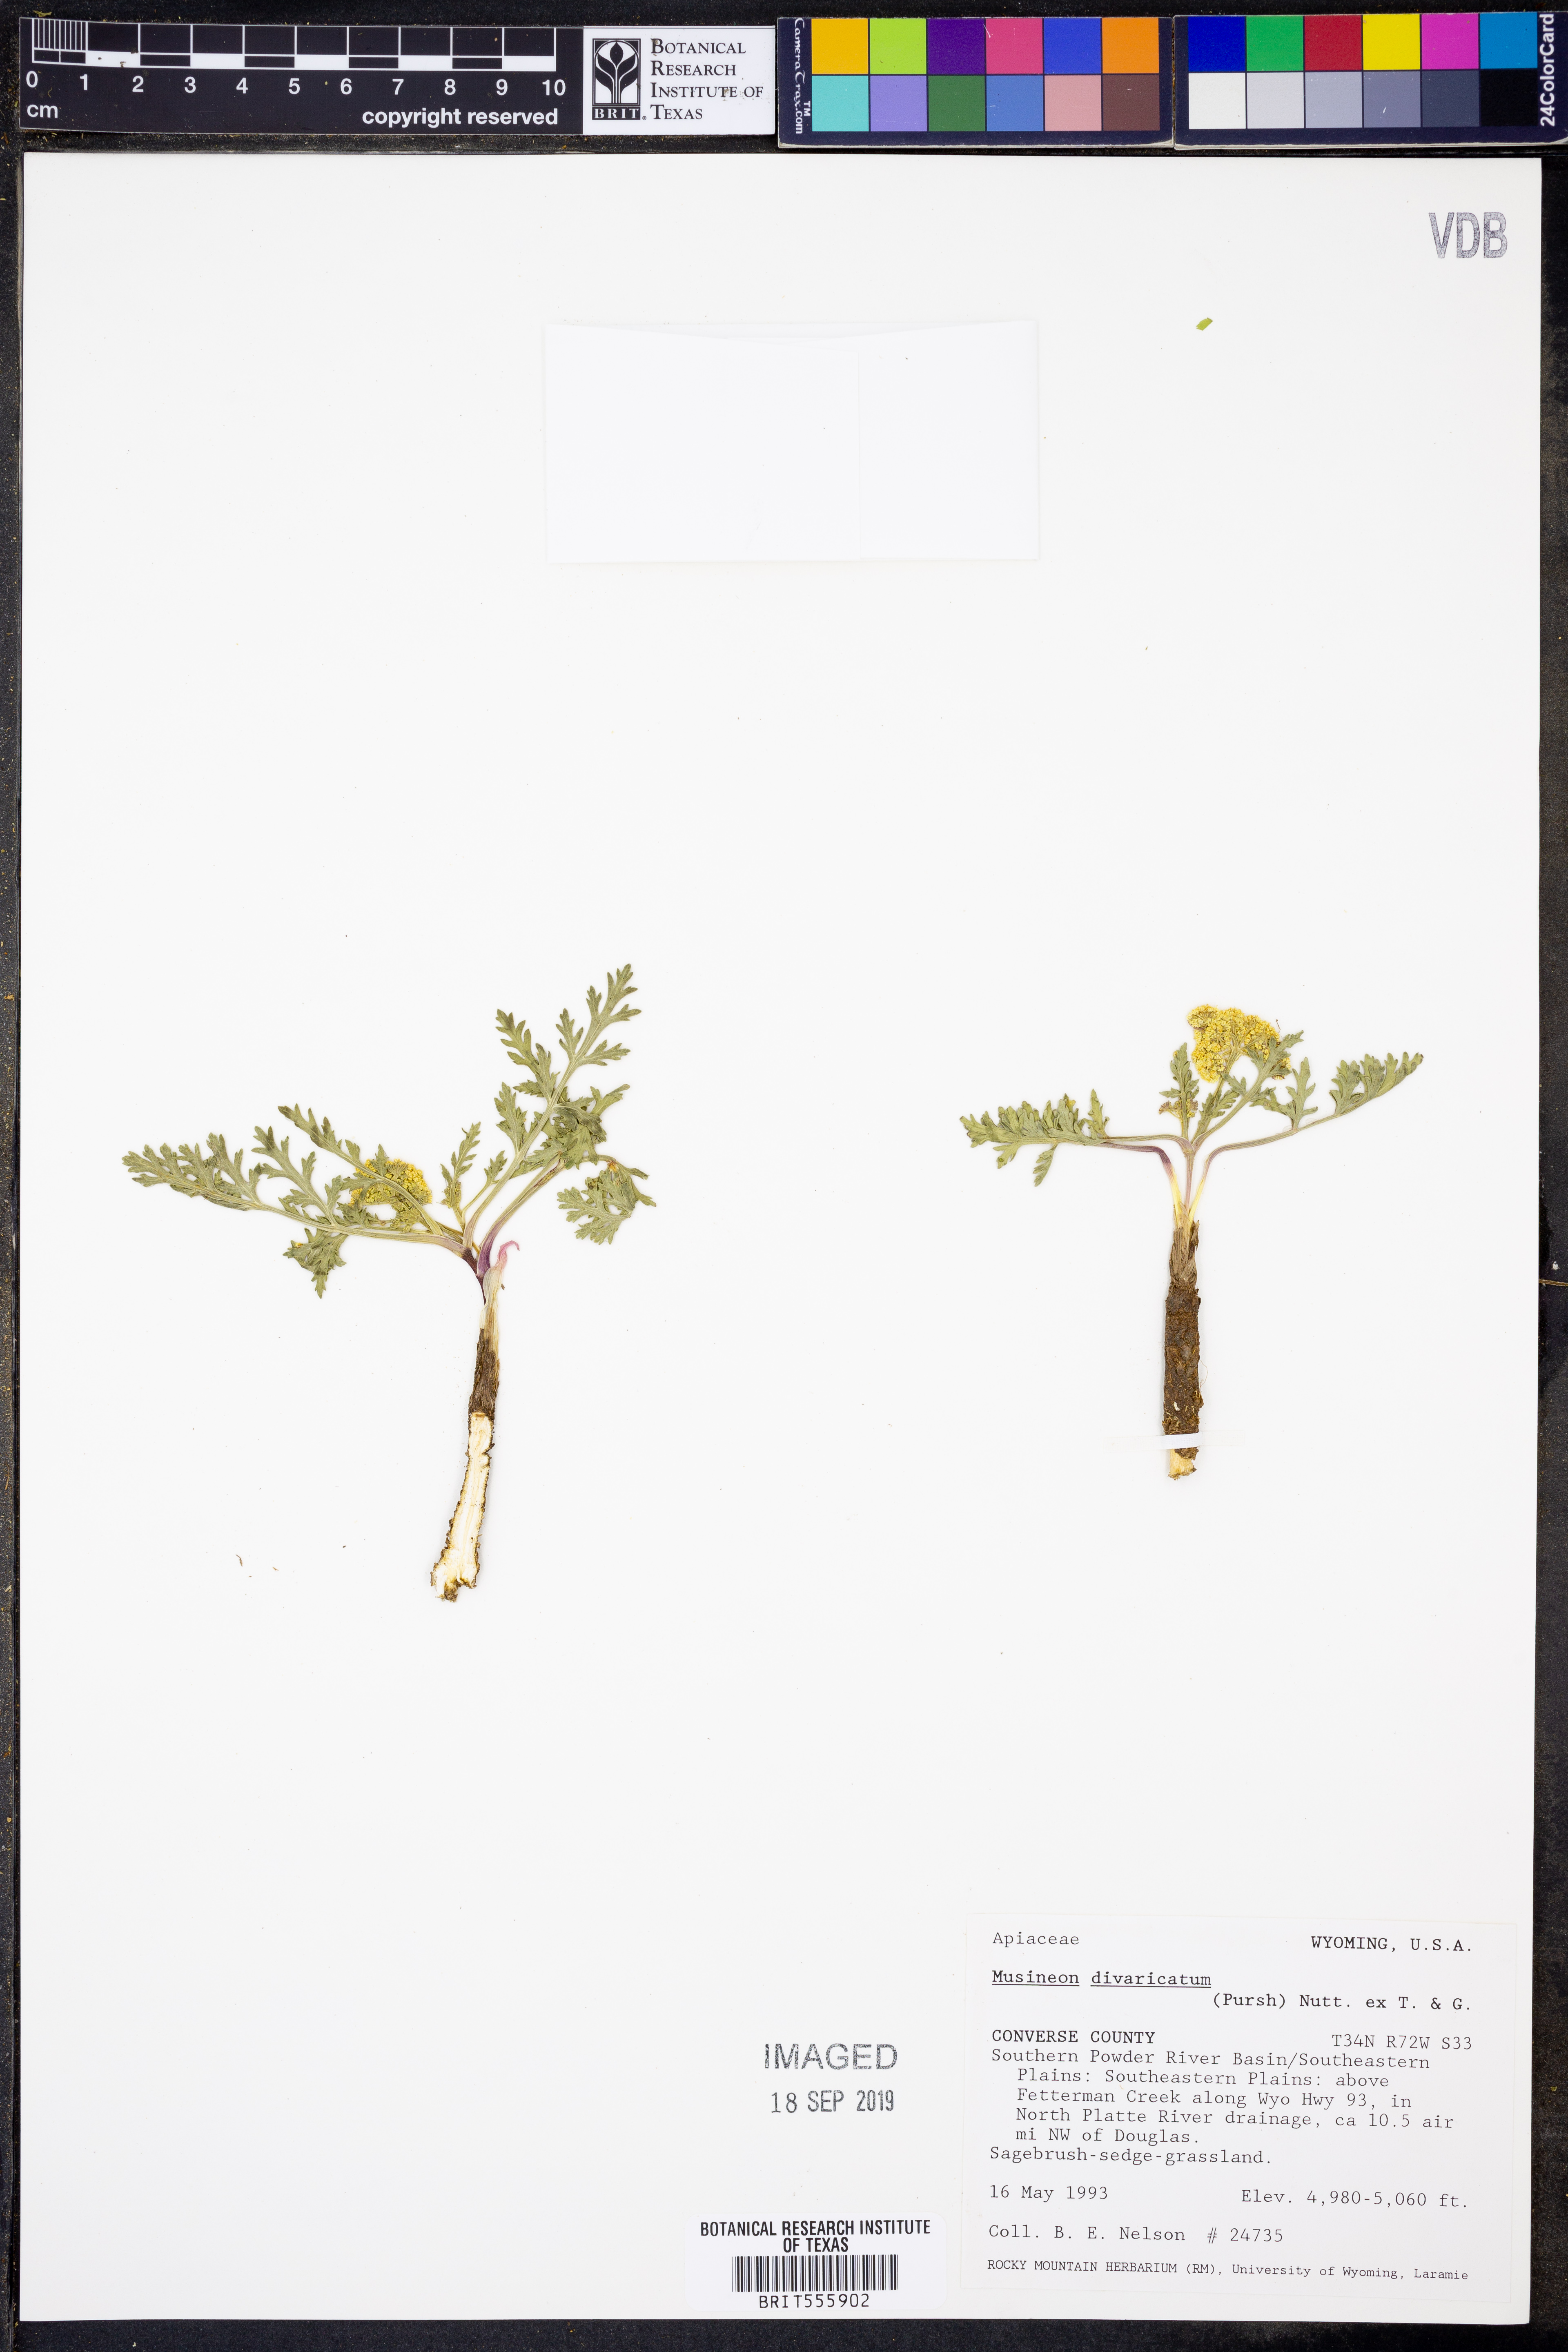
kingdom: Plantae
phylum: Tracheophyta
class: Magnoliopsida
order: Apiales
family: Apiaceae
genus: Musineon
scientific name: Musineon divaricatum
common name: Plains musineon
